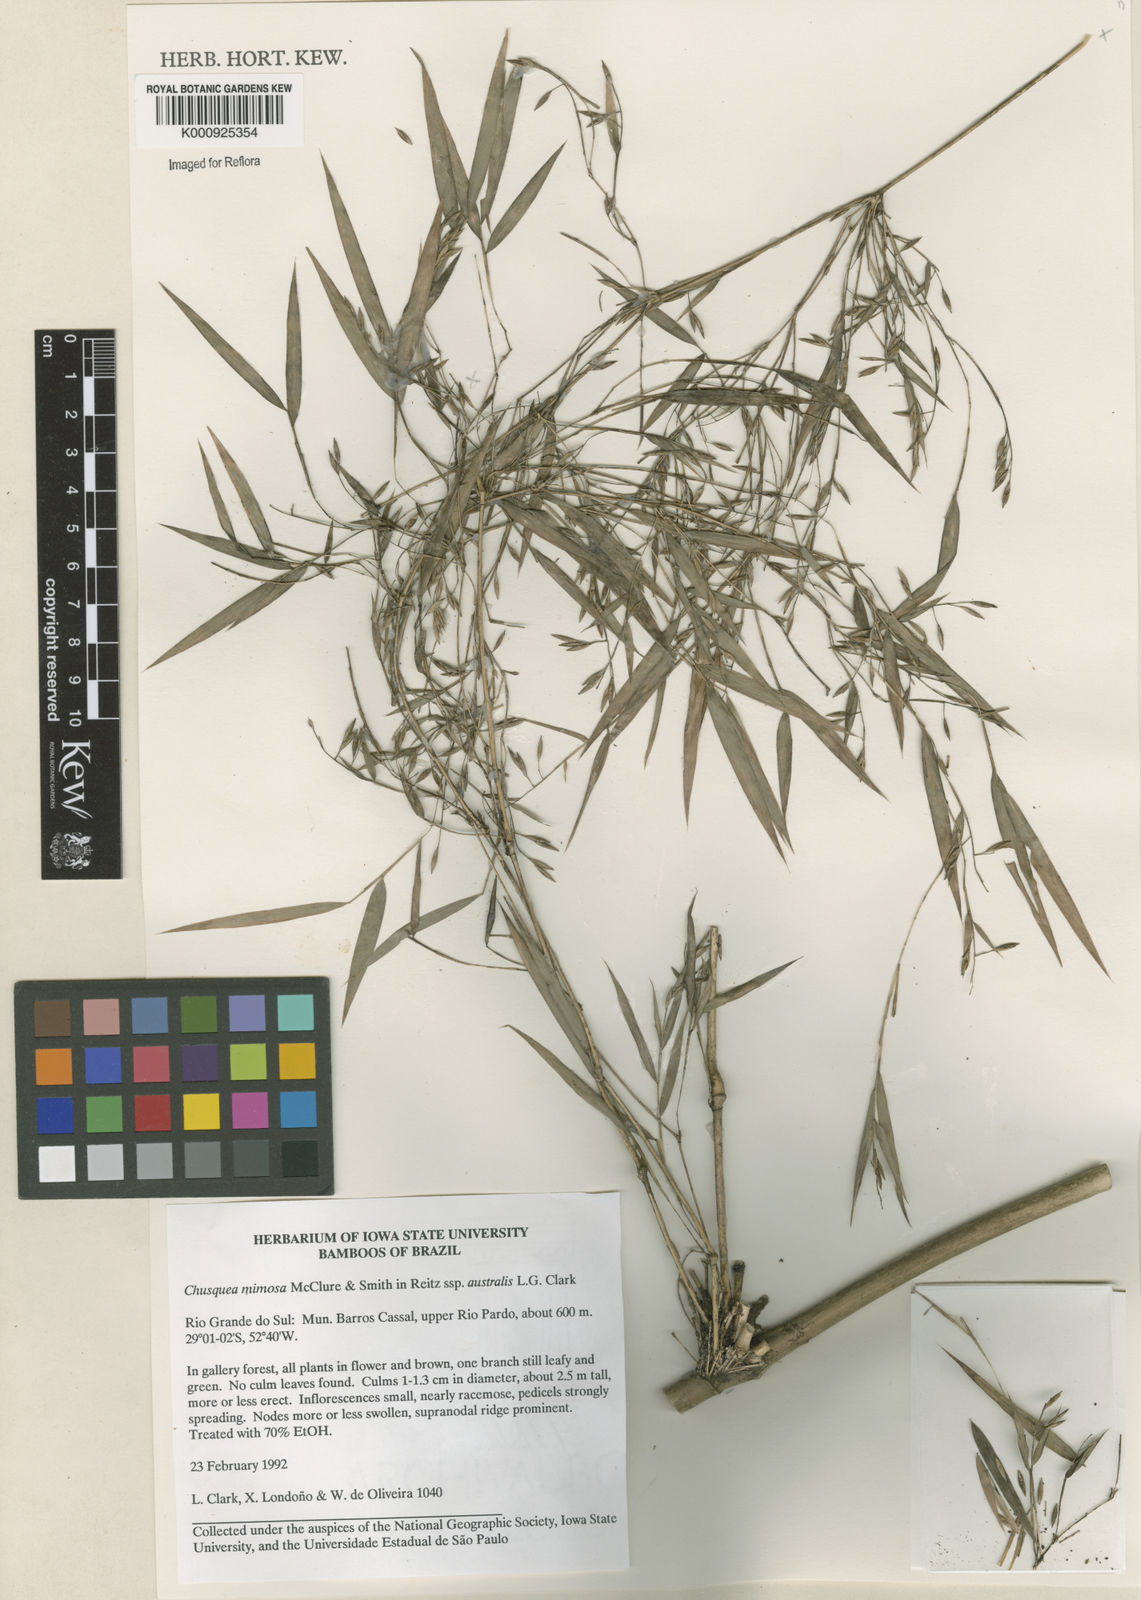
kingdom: Plantae
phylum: Tracheophyta
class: Liliopsida
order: Poales
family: Poaceae
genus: Chusquea
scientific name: Chusquea mimosa
